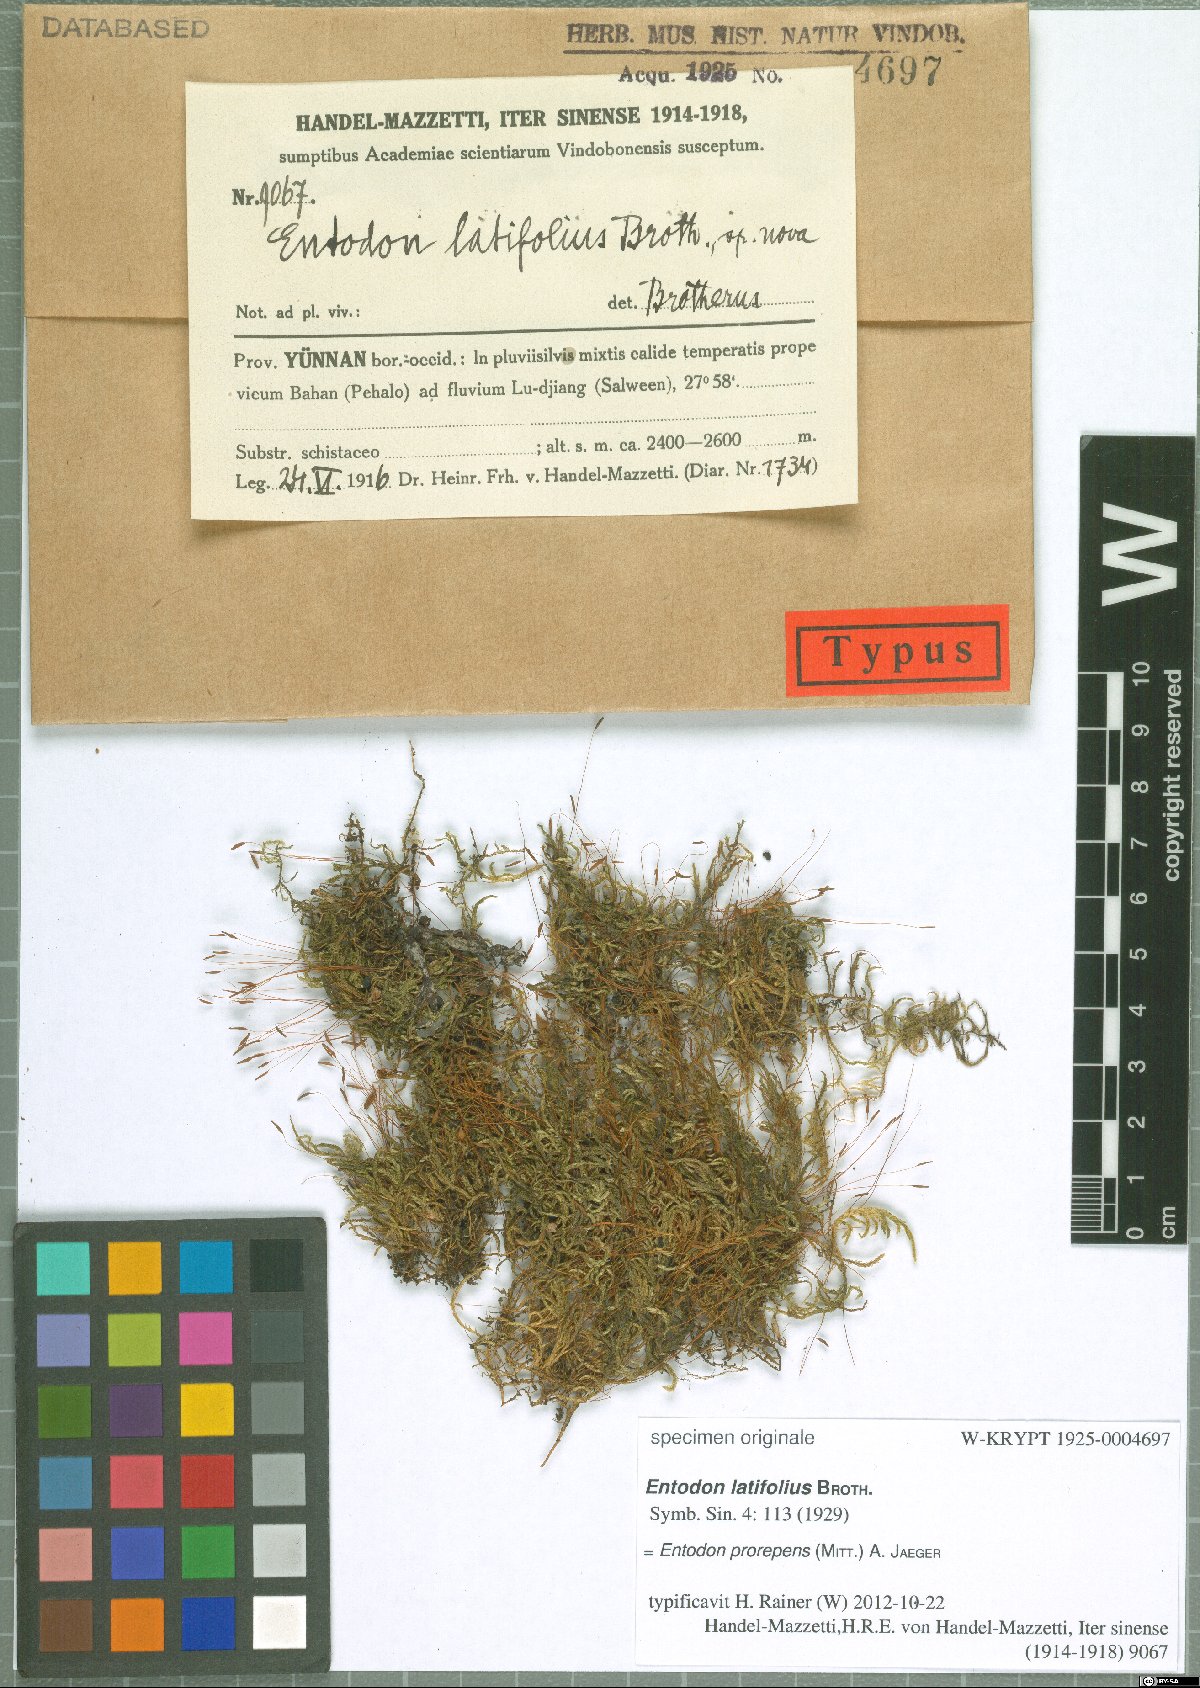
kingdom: Plantae
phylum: Bryophyta
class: Bryopsida
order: Hypnales
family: Entodontaceae
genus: Entodon
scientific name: Entodon prorepens
